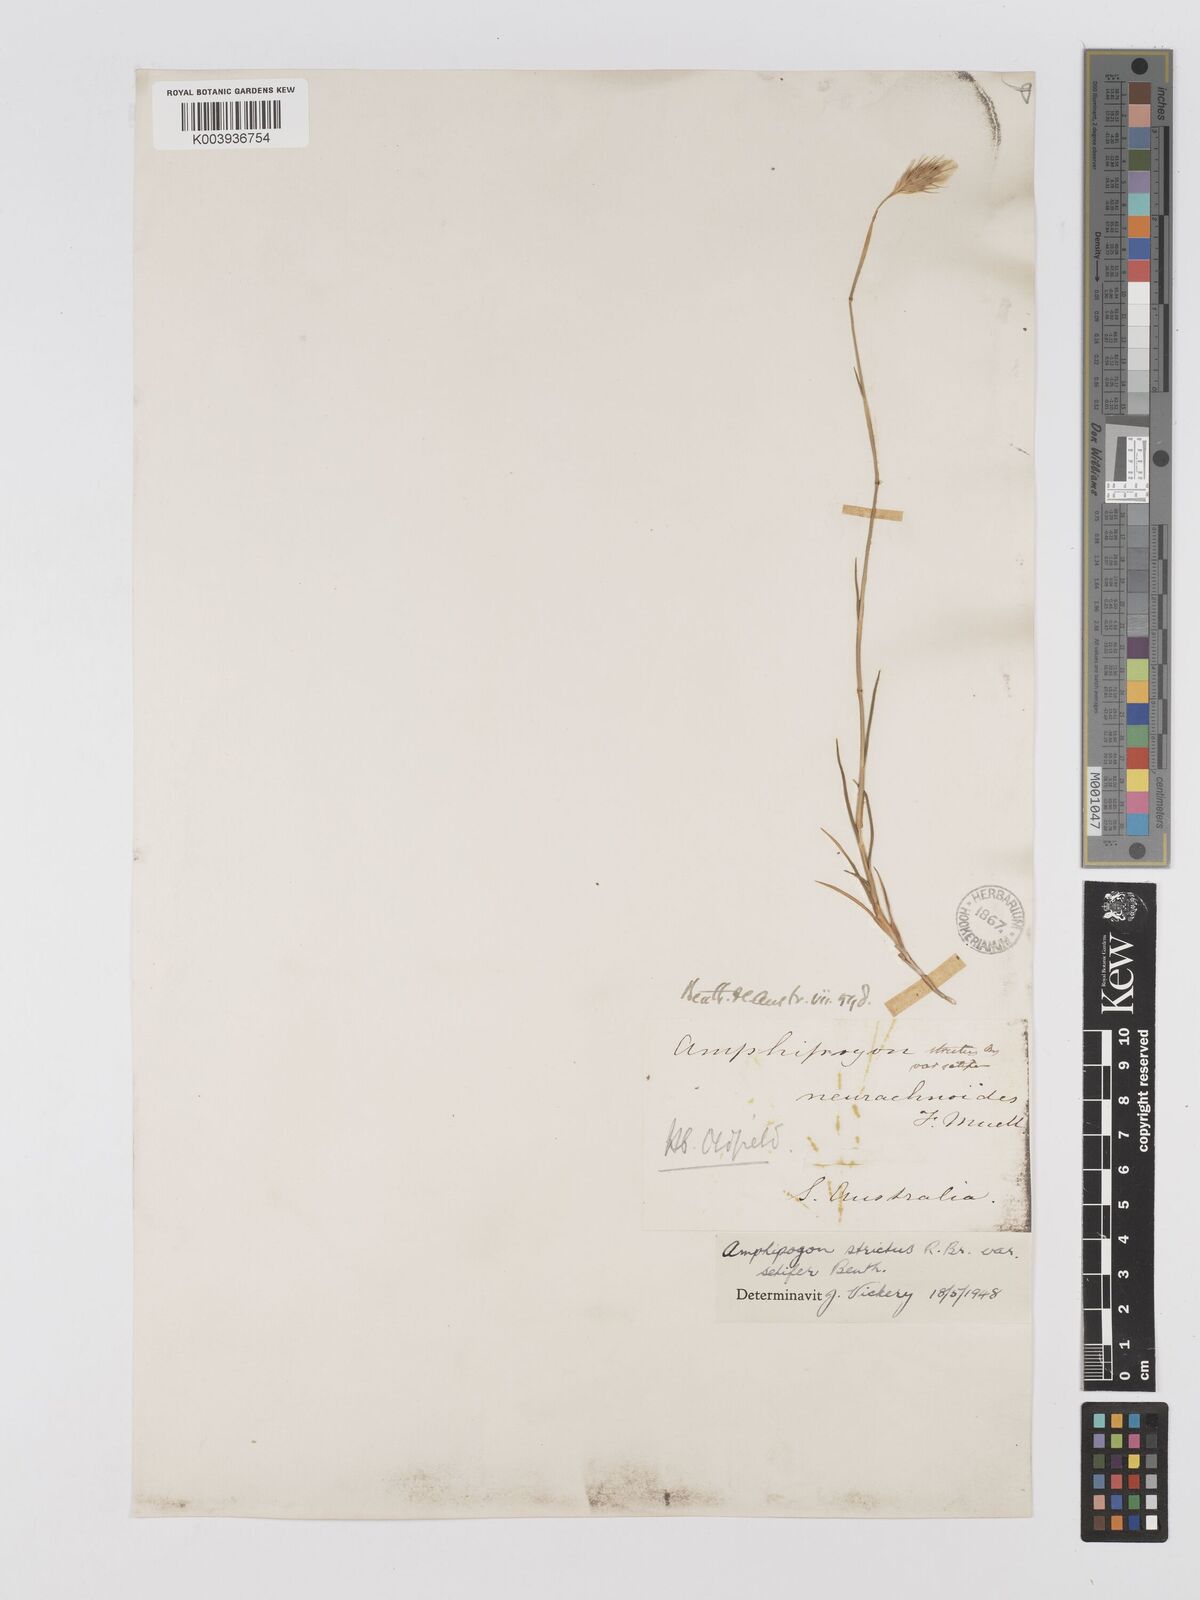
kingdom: Plantae
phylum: Tracheophyta
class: Liliopsida
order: Poales
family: Poaceae
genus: Amphipogon
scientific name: Amphipogon strictus
